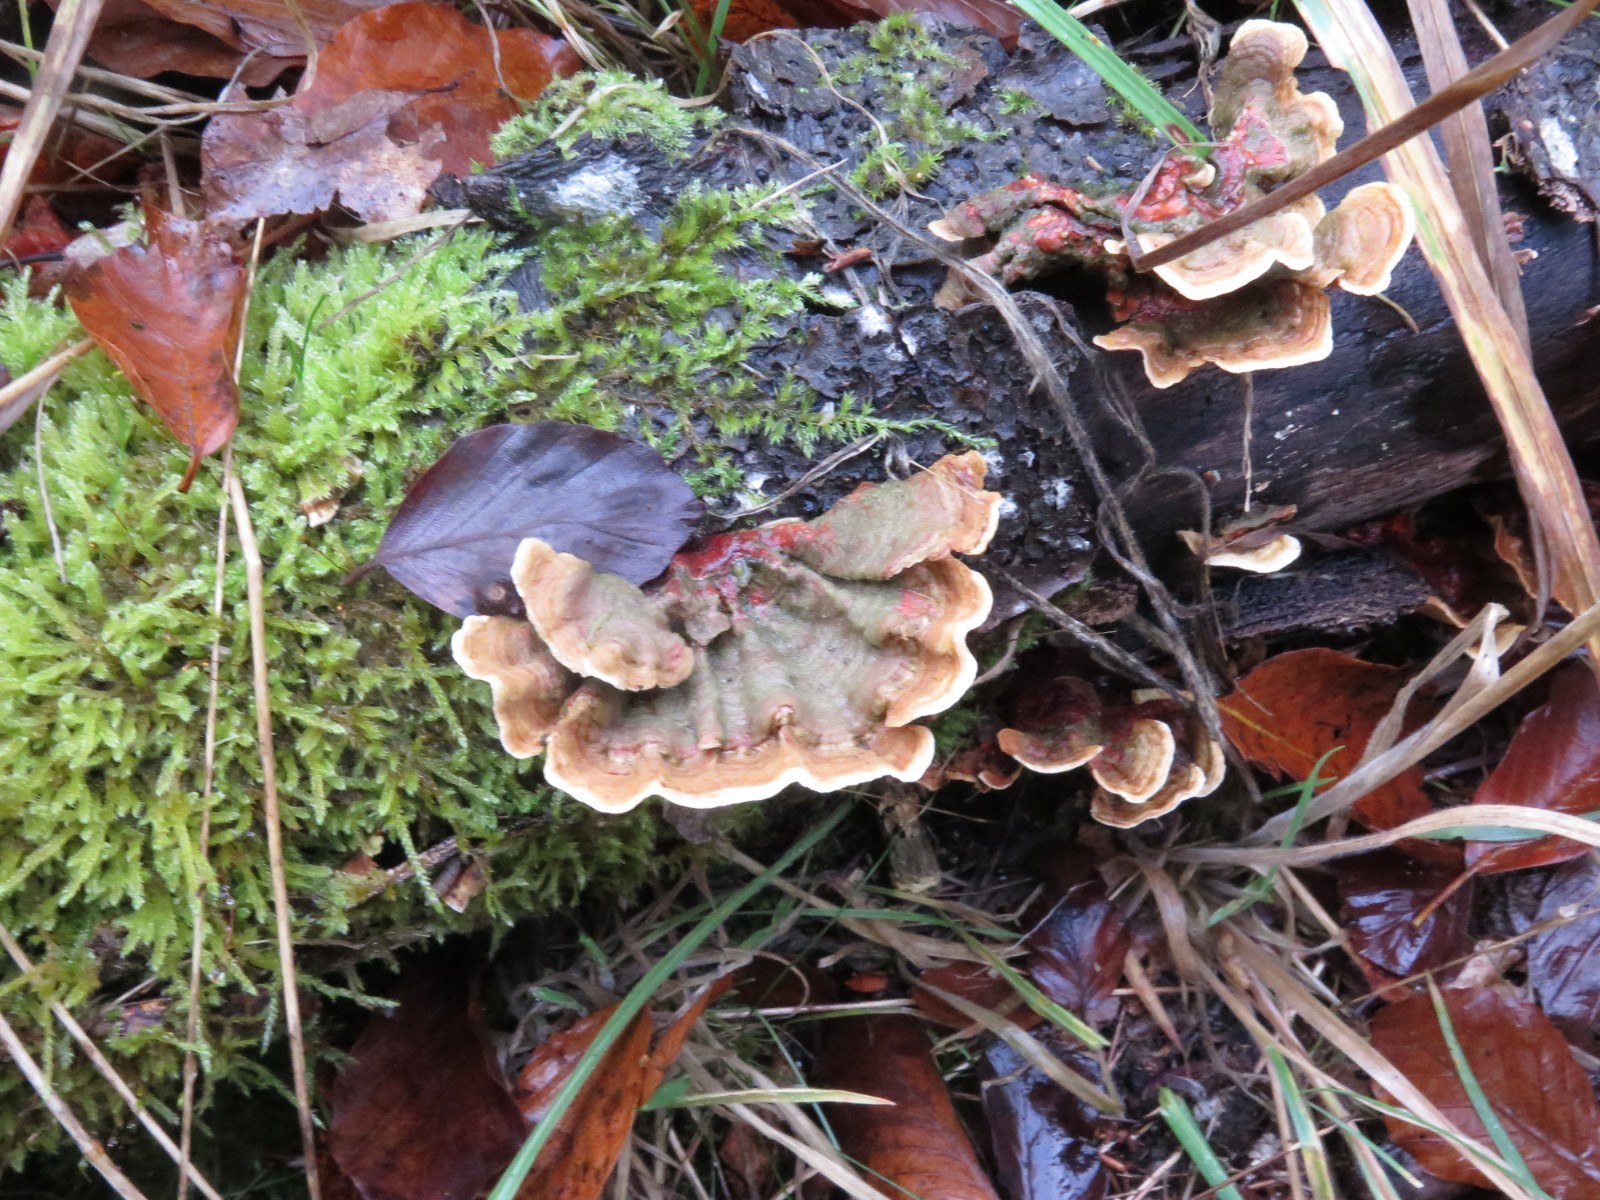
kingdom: Fungi
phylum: Basidiomycota
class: Agaricomycetes
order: Russulales
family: Stereaceae
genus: Stereum
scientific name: Stereum subtomentosum
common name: smuk lædersvamp
